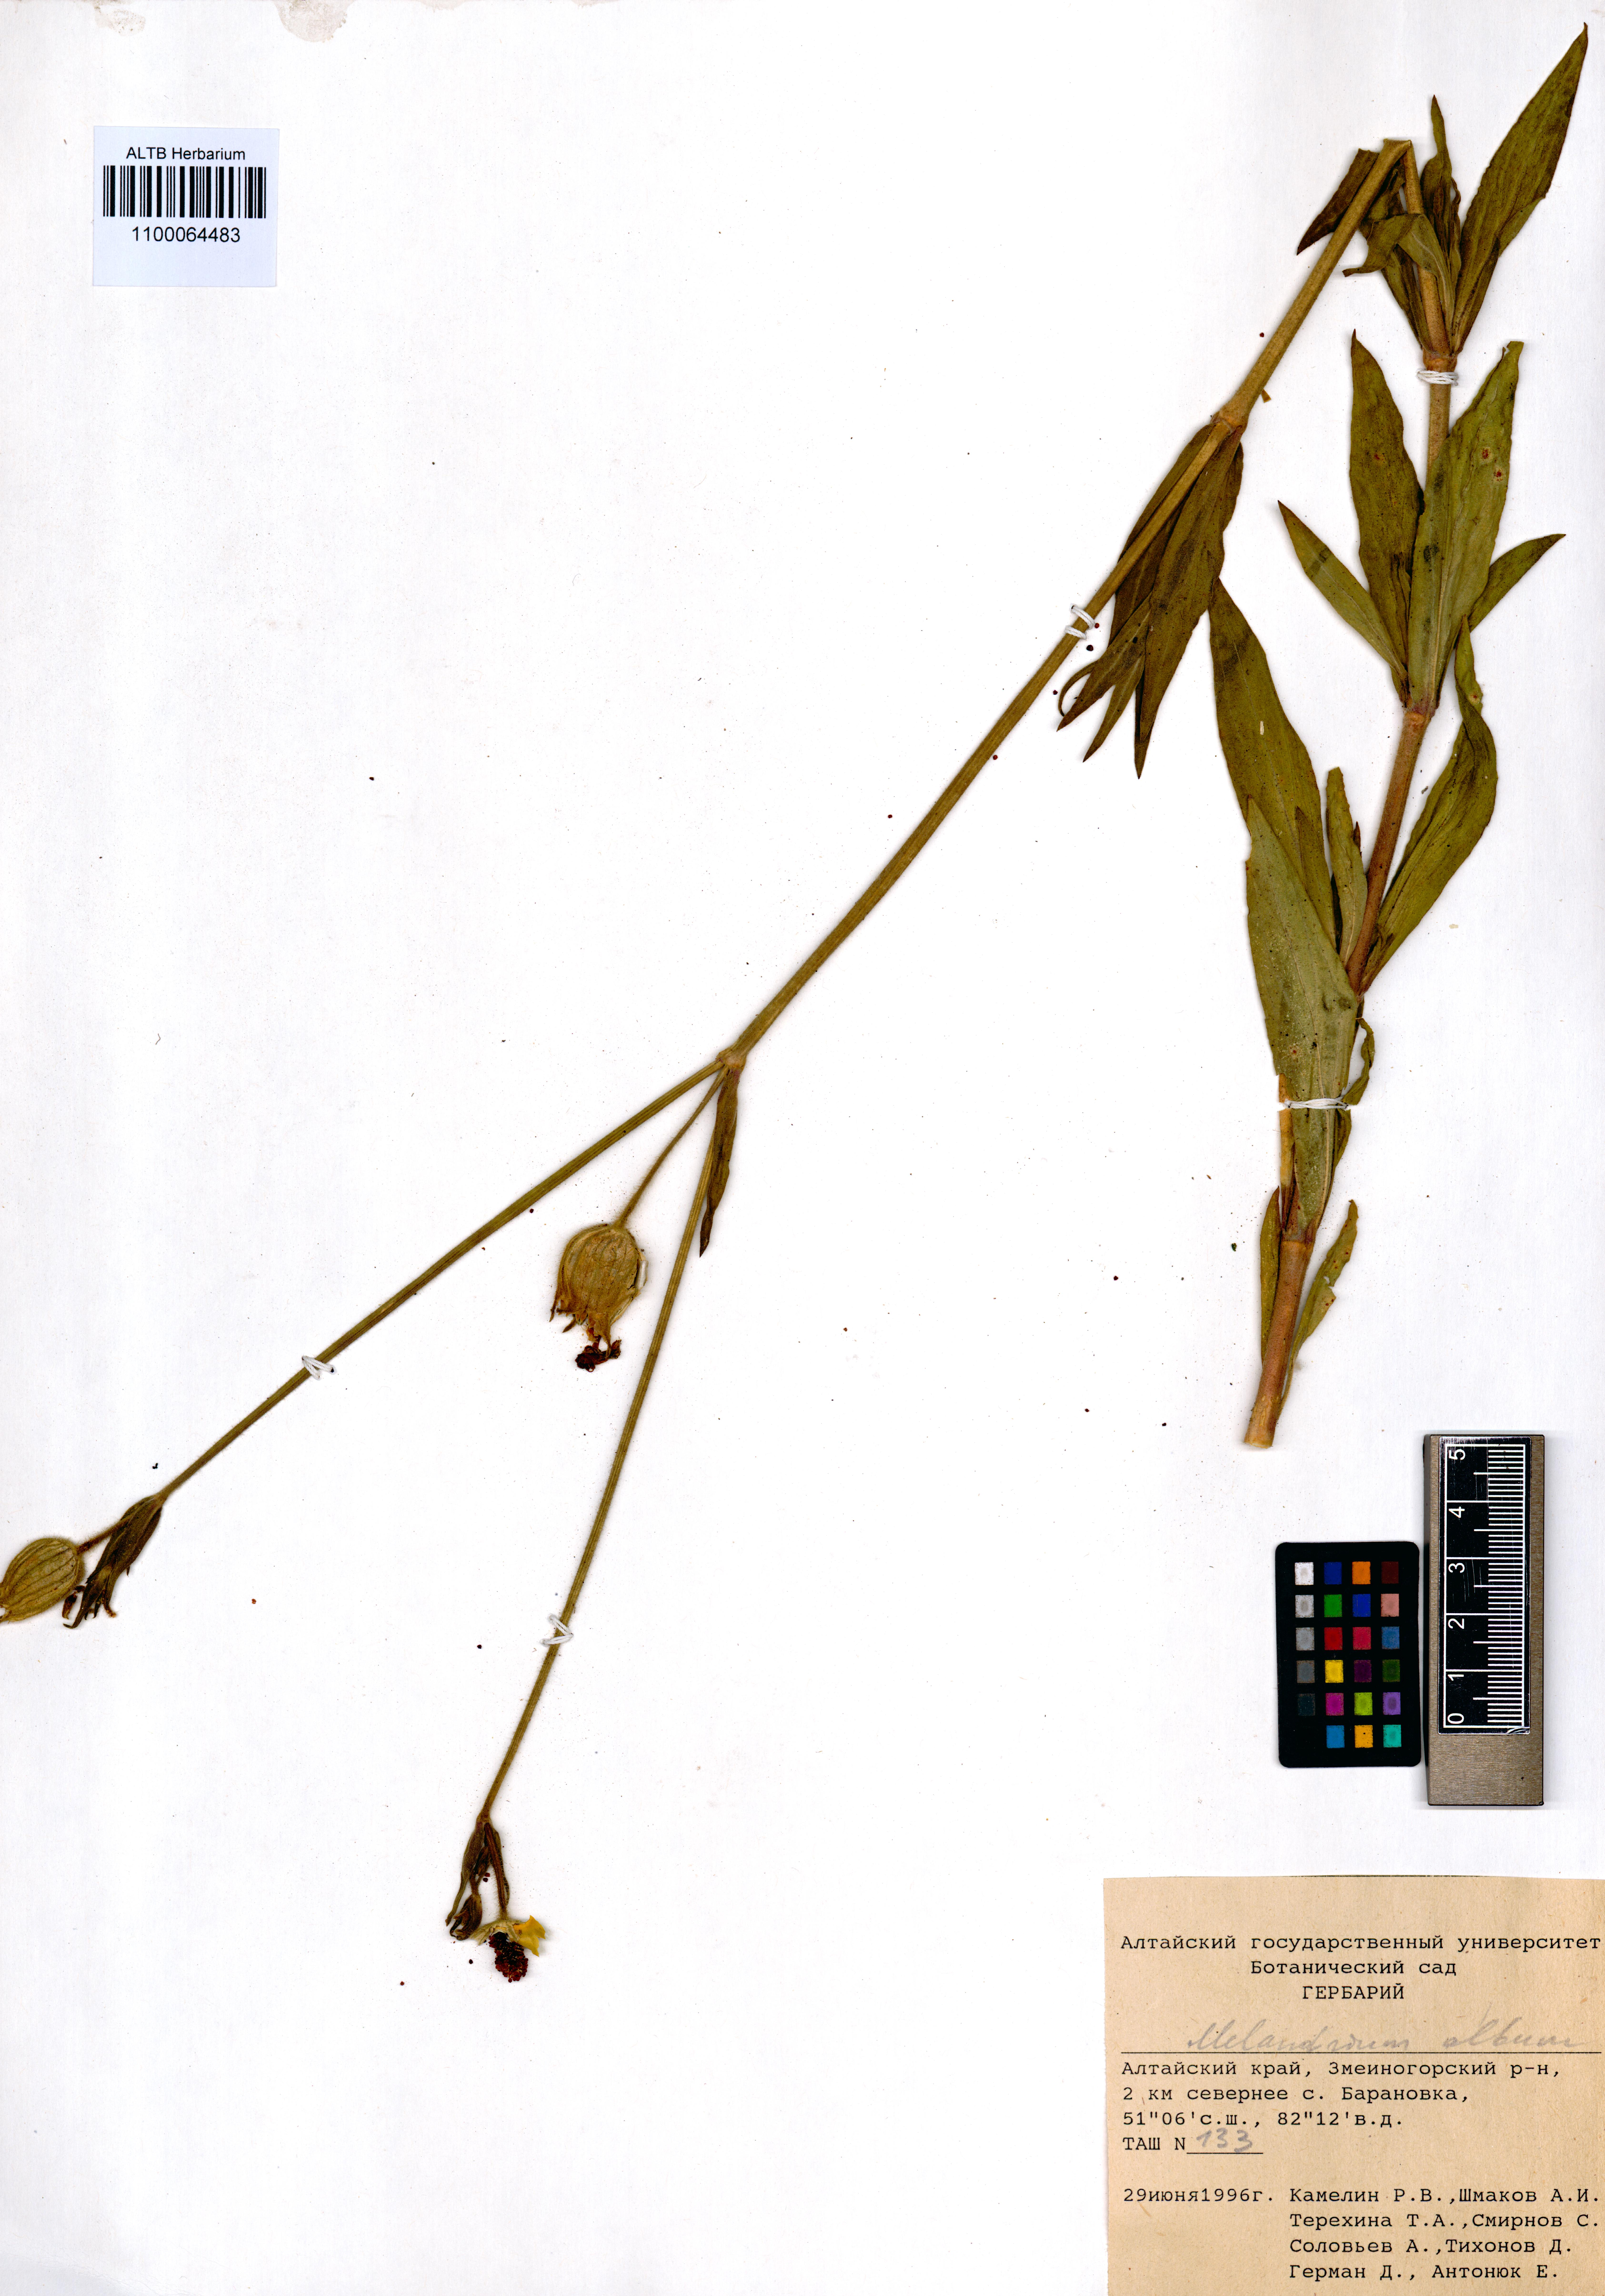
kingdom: Plantae
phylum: Tracheophyta
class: Magnoliopsida
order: Caryophyllales
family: Caryophyllaceae
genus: Silene
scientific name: Silene latifolia
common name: White campion
